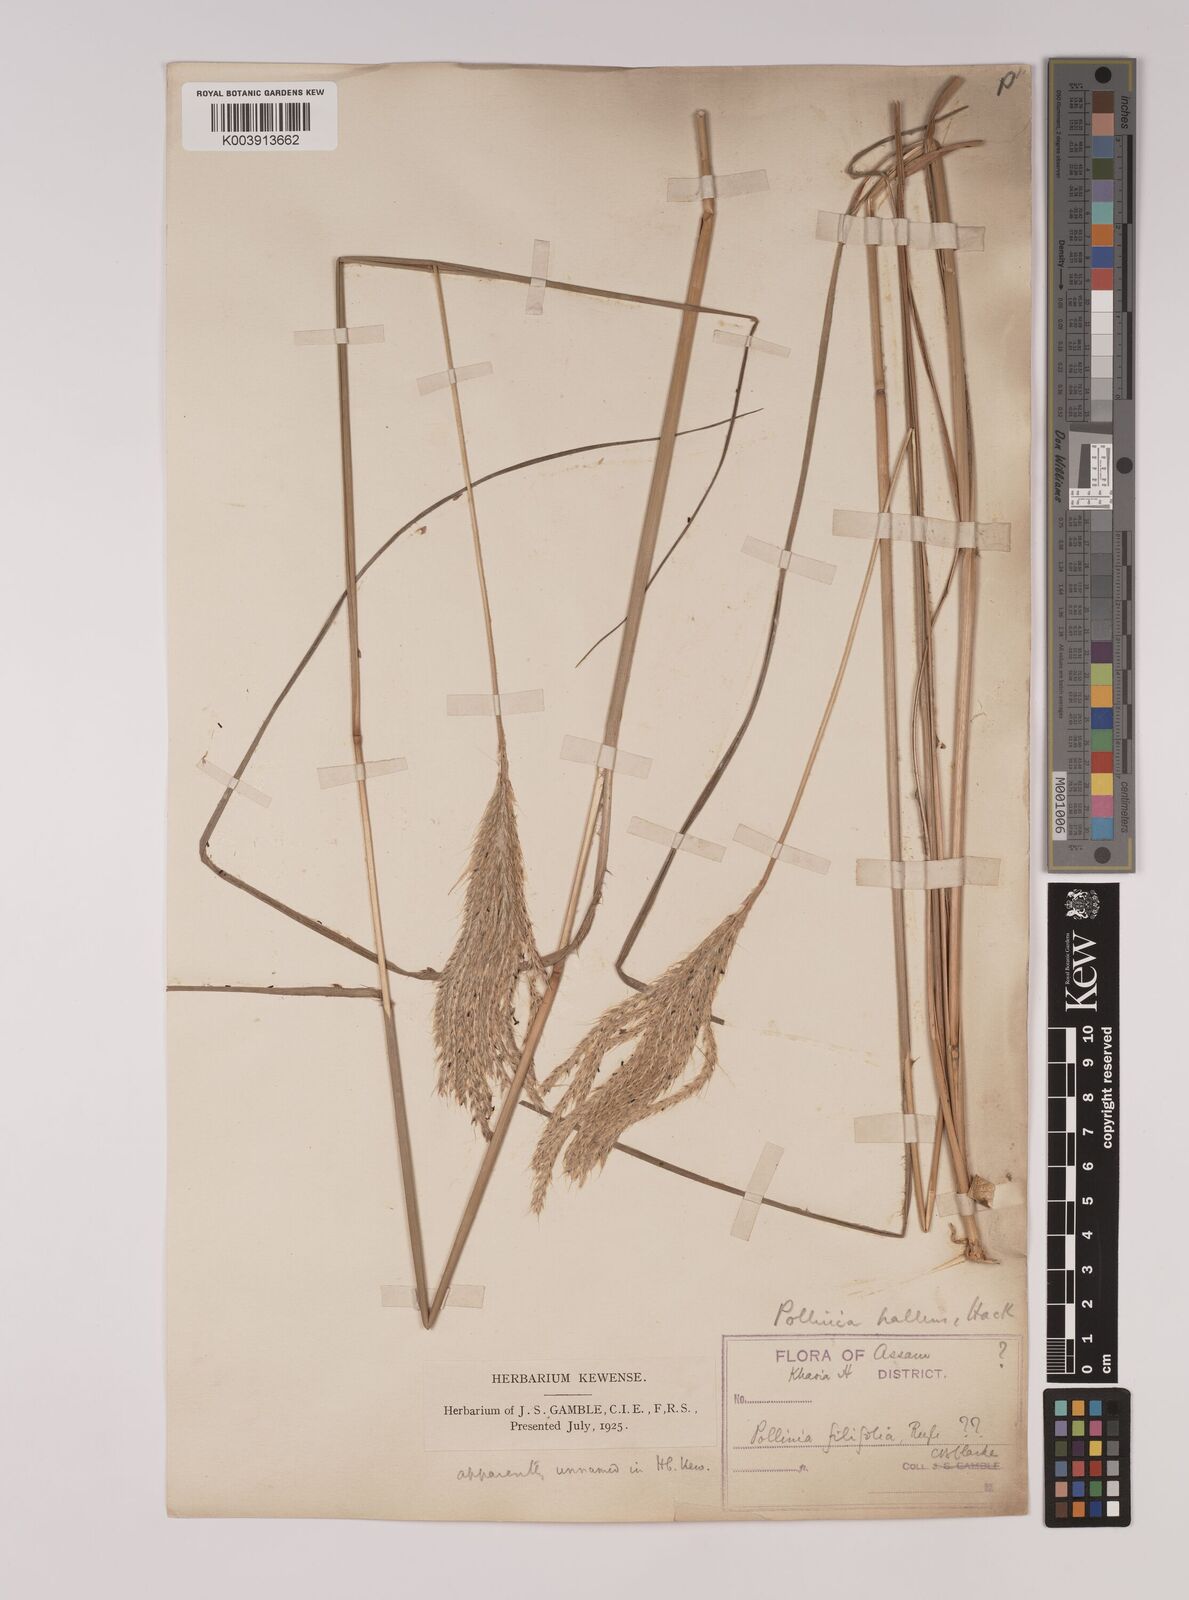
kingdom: Plantae
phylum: Tracheophyta
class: Liliopsida
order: Poales
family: Poaceae
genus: Eulalia
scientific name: Eulalia pallens
